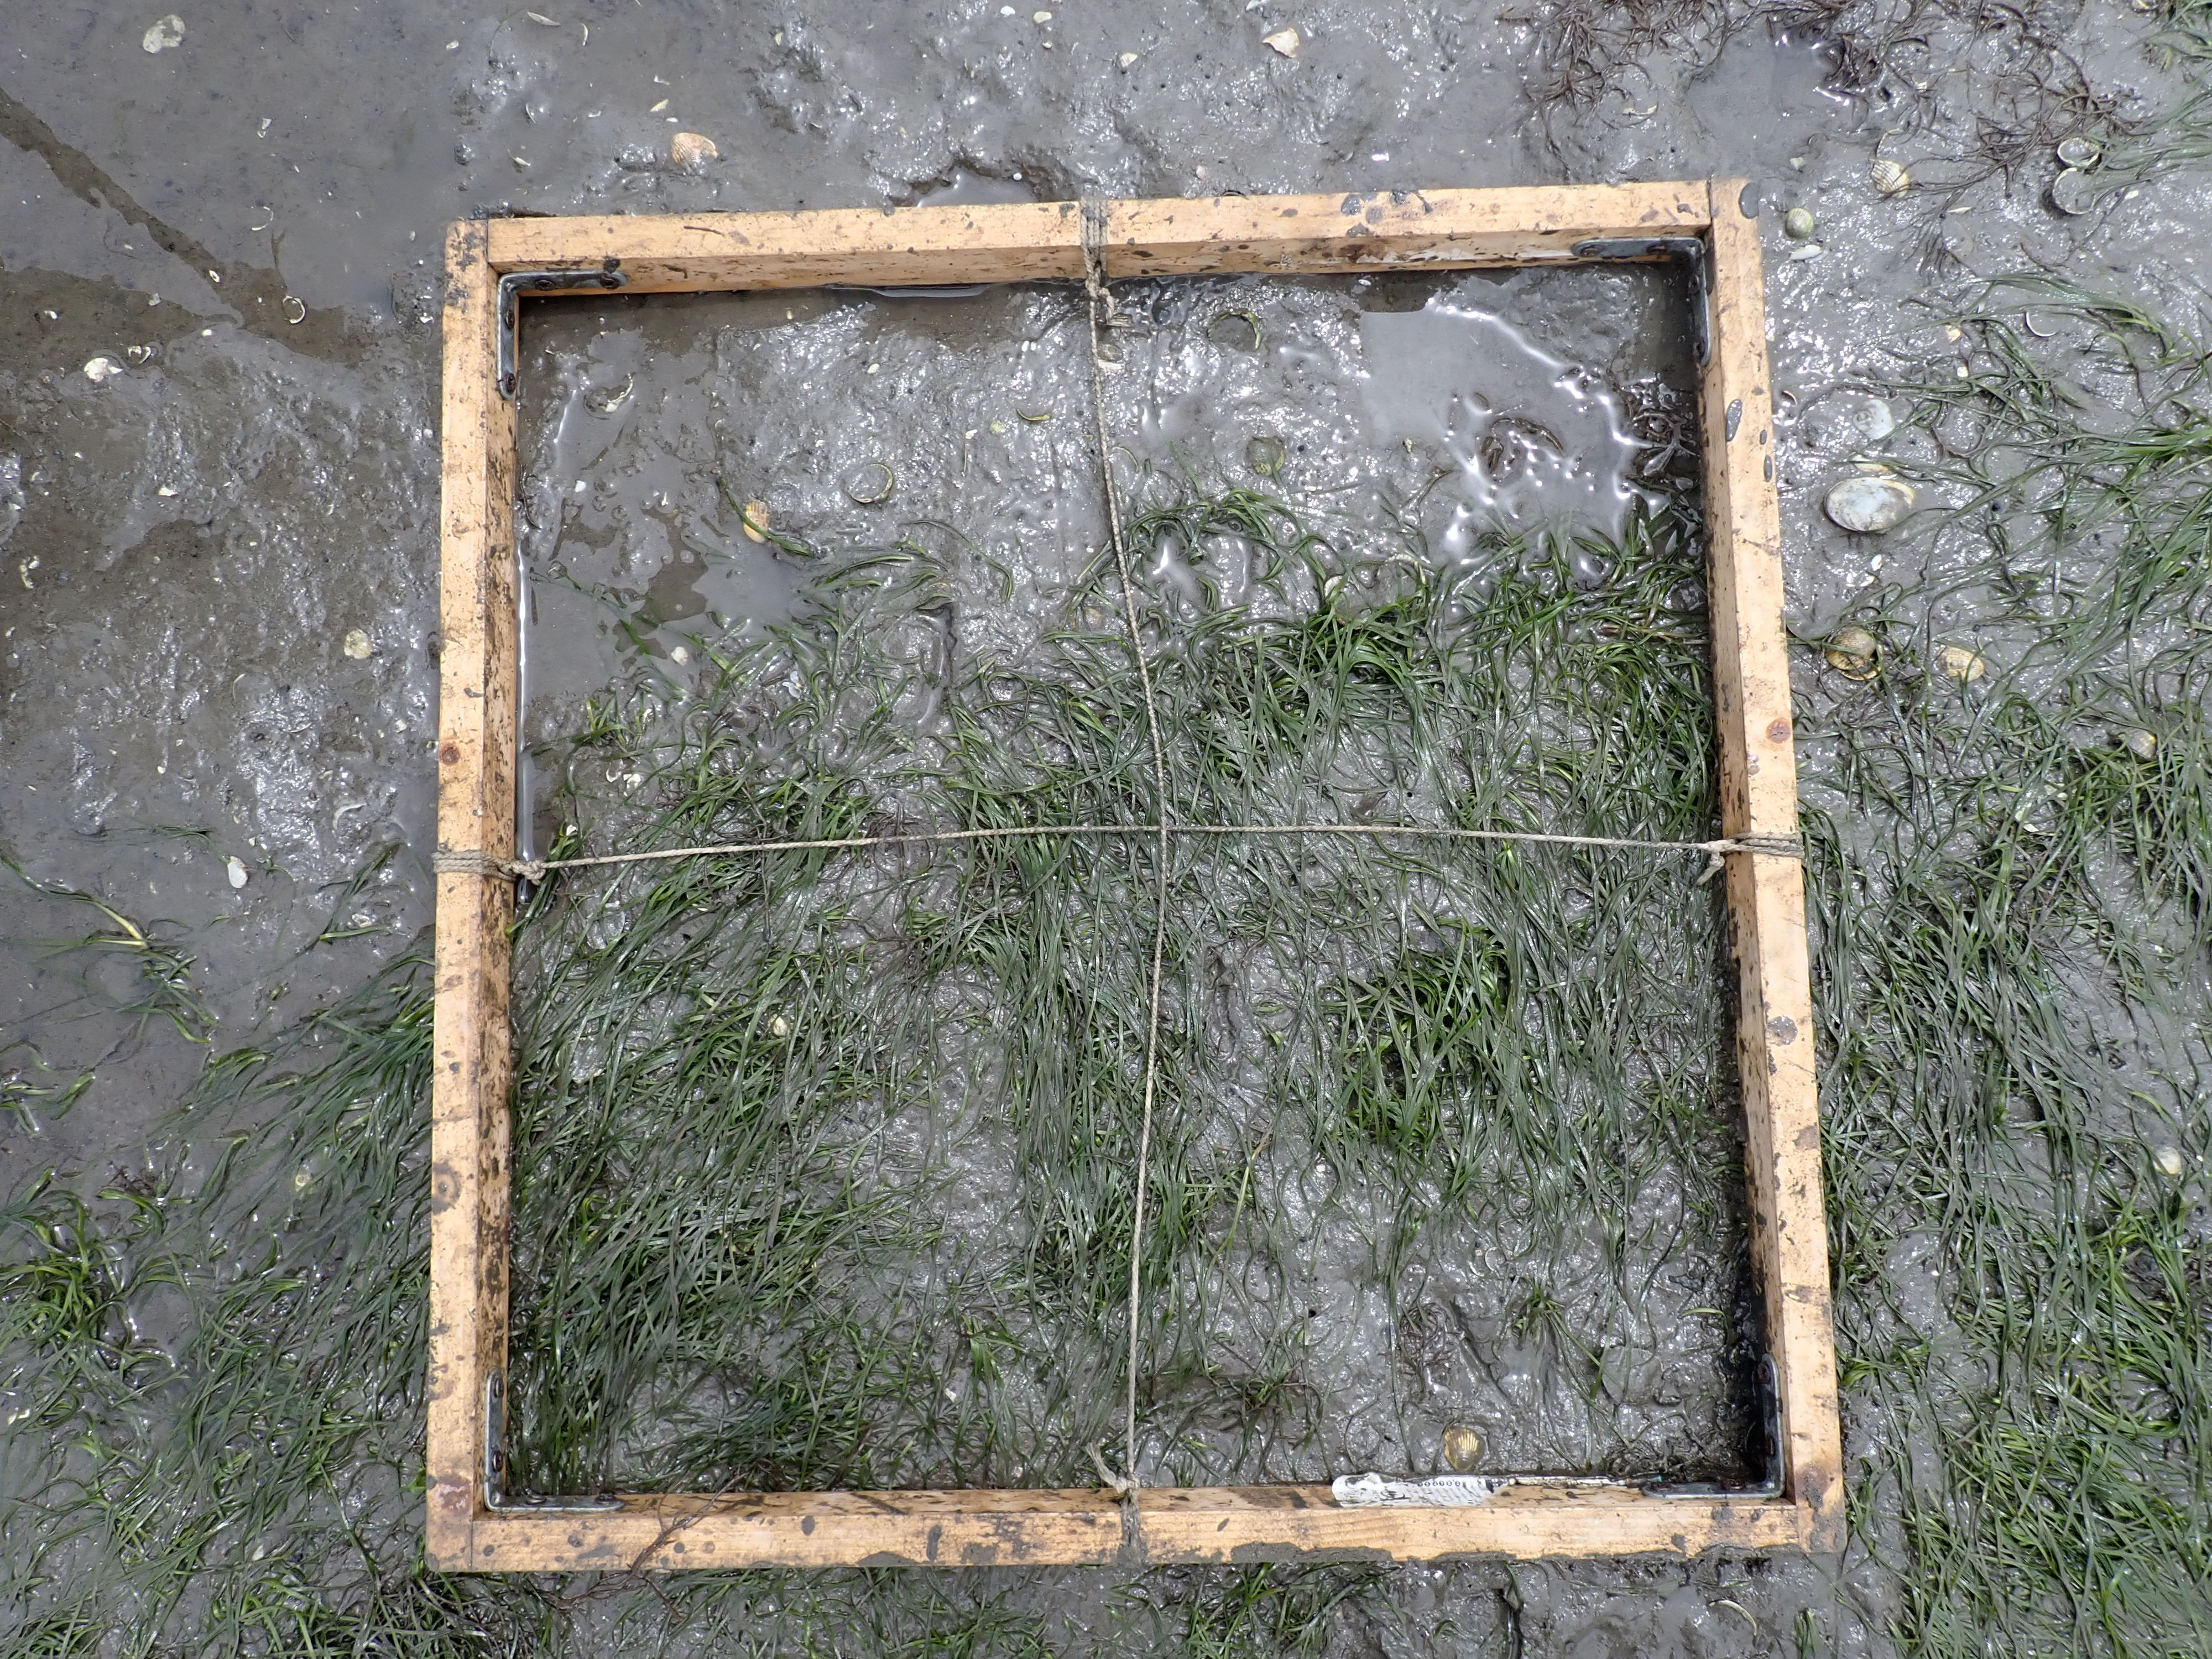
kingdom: Plantae
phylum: Tracheophyta
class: Liliopsida
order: Alismatales
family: Zosteraceae
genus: Zostera
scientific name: Zostera noltii
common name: Dwarf eelgrass
